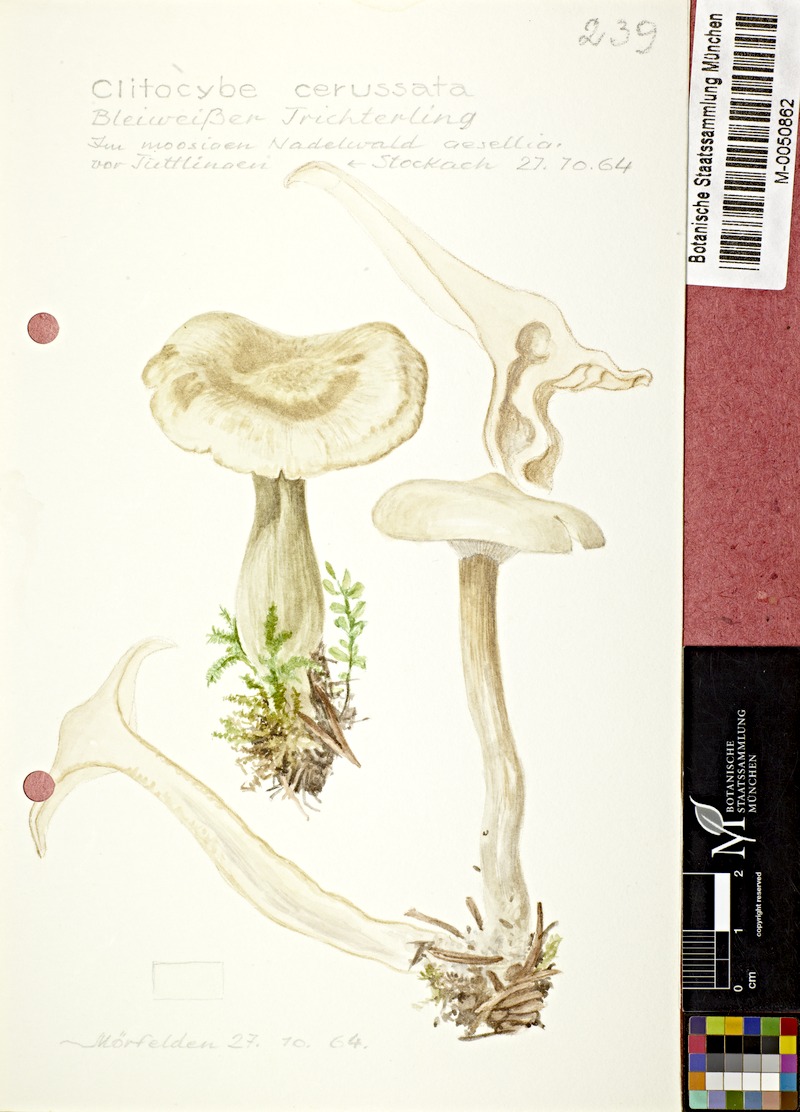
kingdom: Fungi
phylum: Basidiomycota
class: Agaricomycetes
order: Agaricales
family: Tricholomataceae
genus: Clitocybe
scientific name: Clitocybe phyllophila
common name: Frosty funnel
